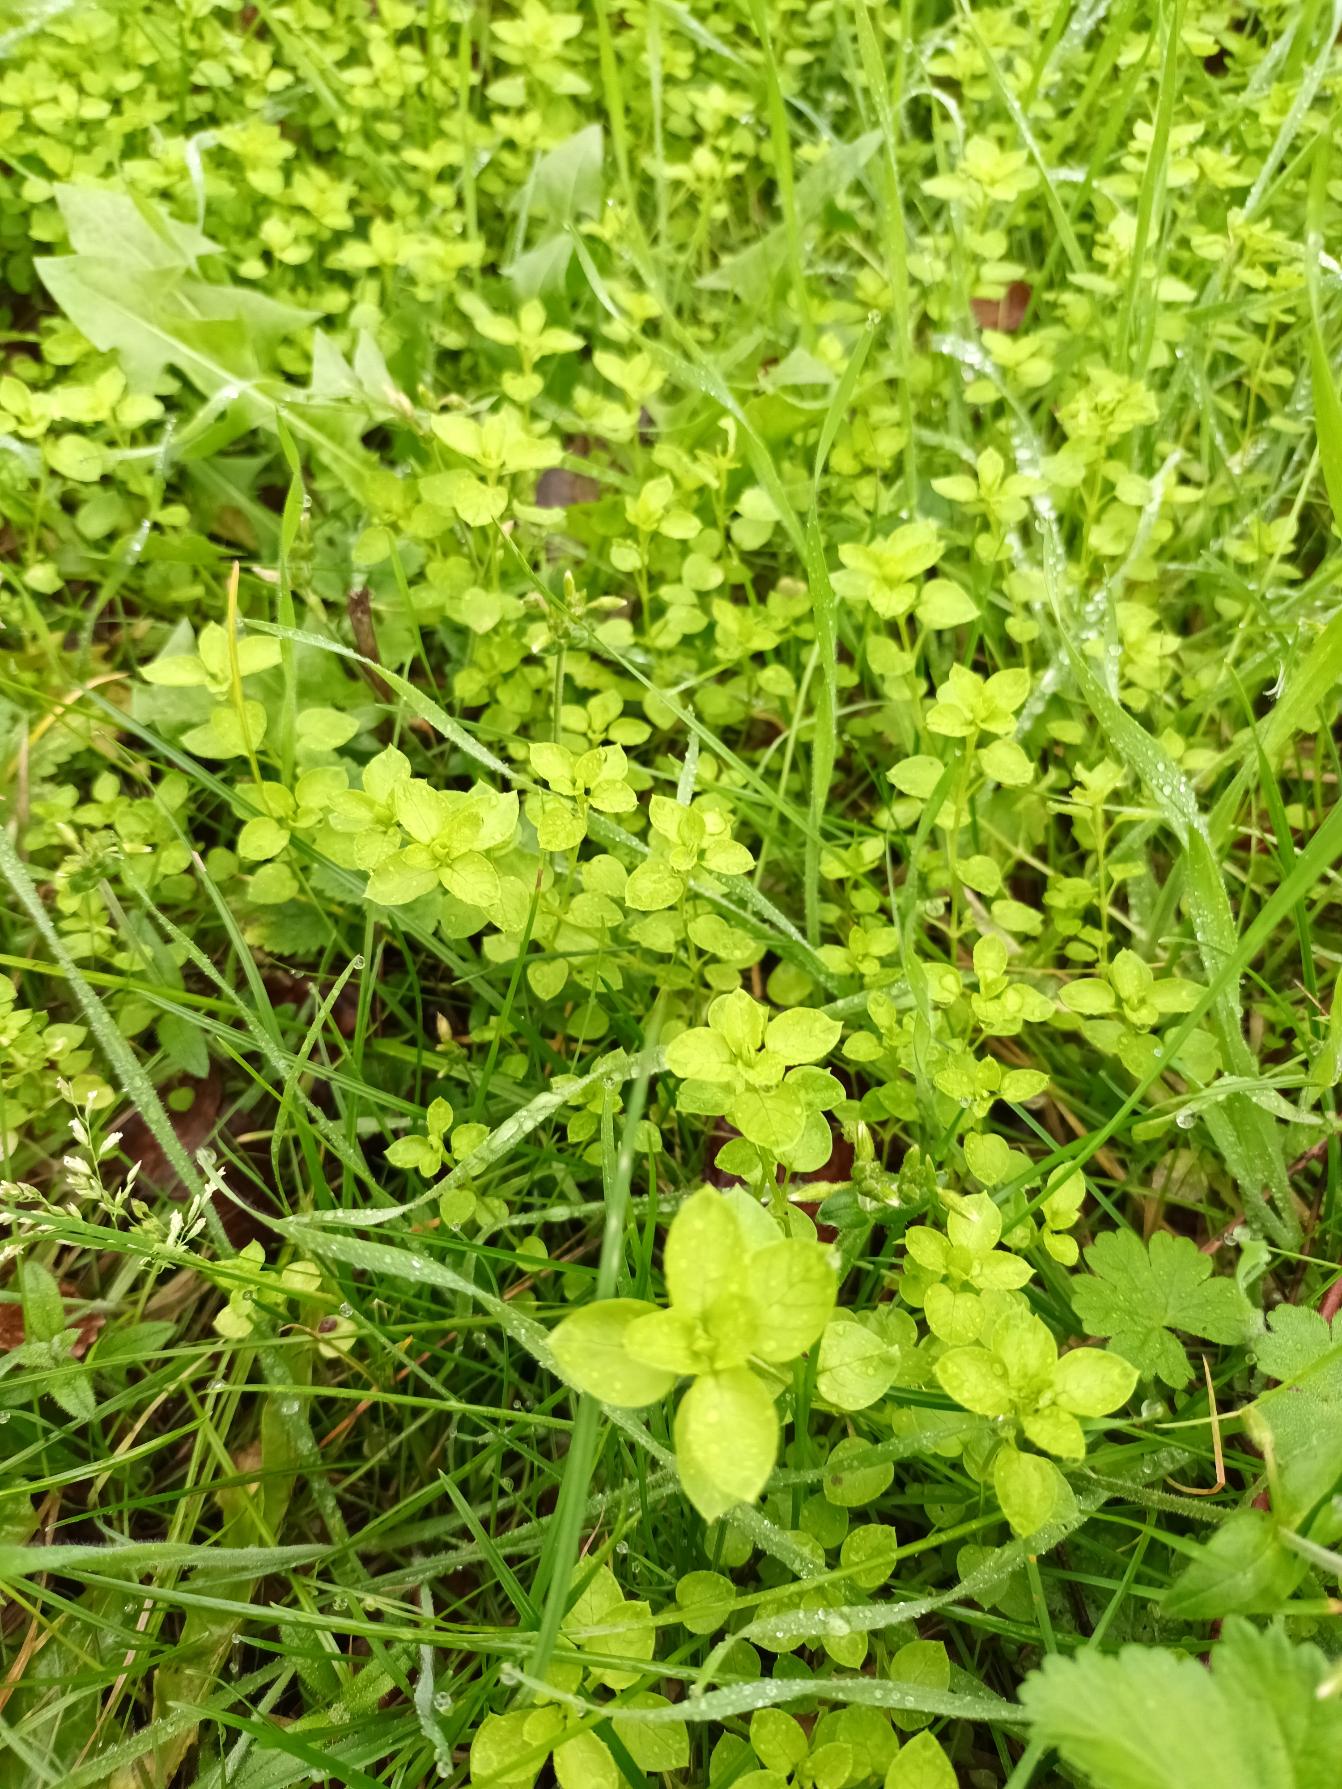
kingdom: Plantae
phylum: Tracheophyta
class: Magnoliopsida
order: Caryophyllales
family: Caryophyllaceae
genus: Stellaria
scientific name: Stellaria media
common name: Almindelig fuglegræs
